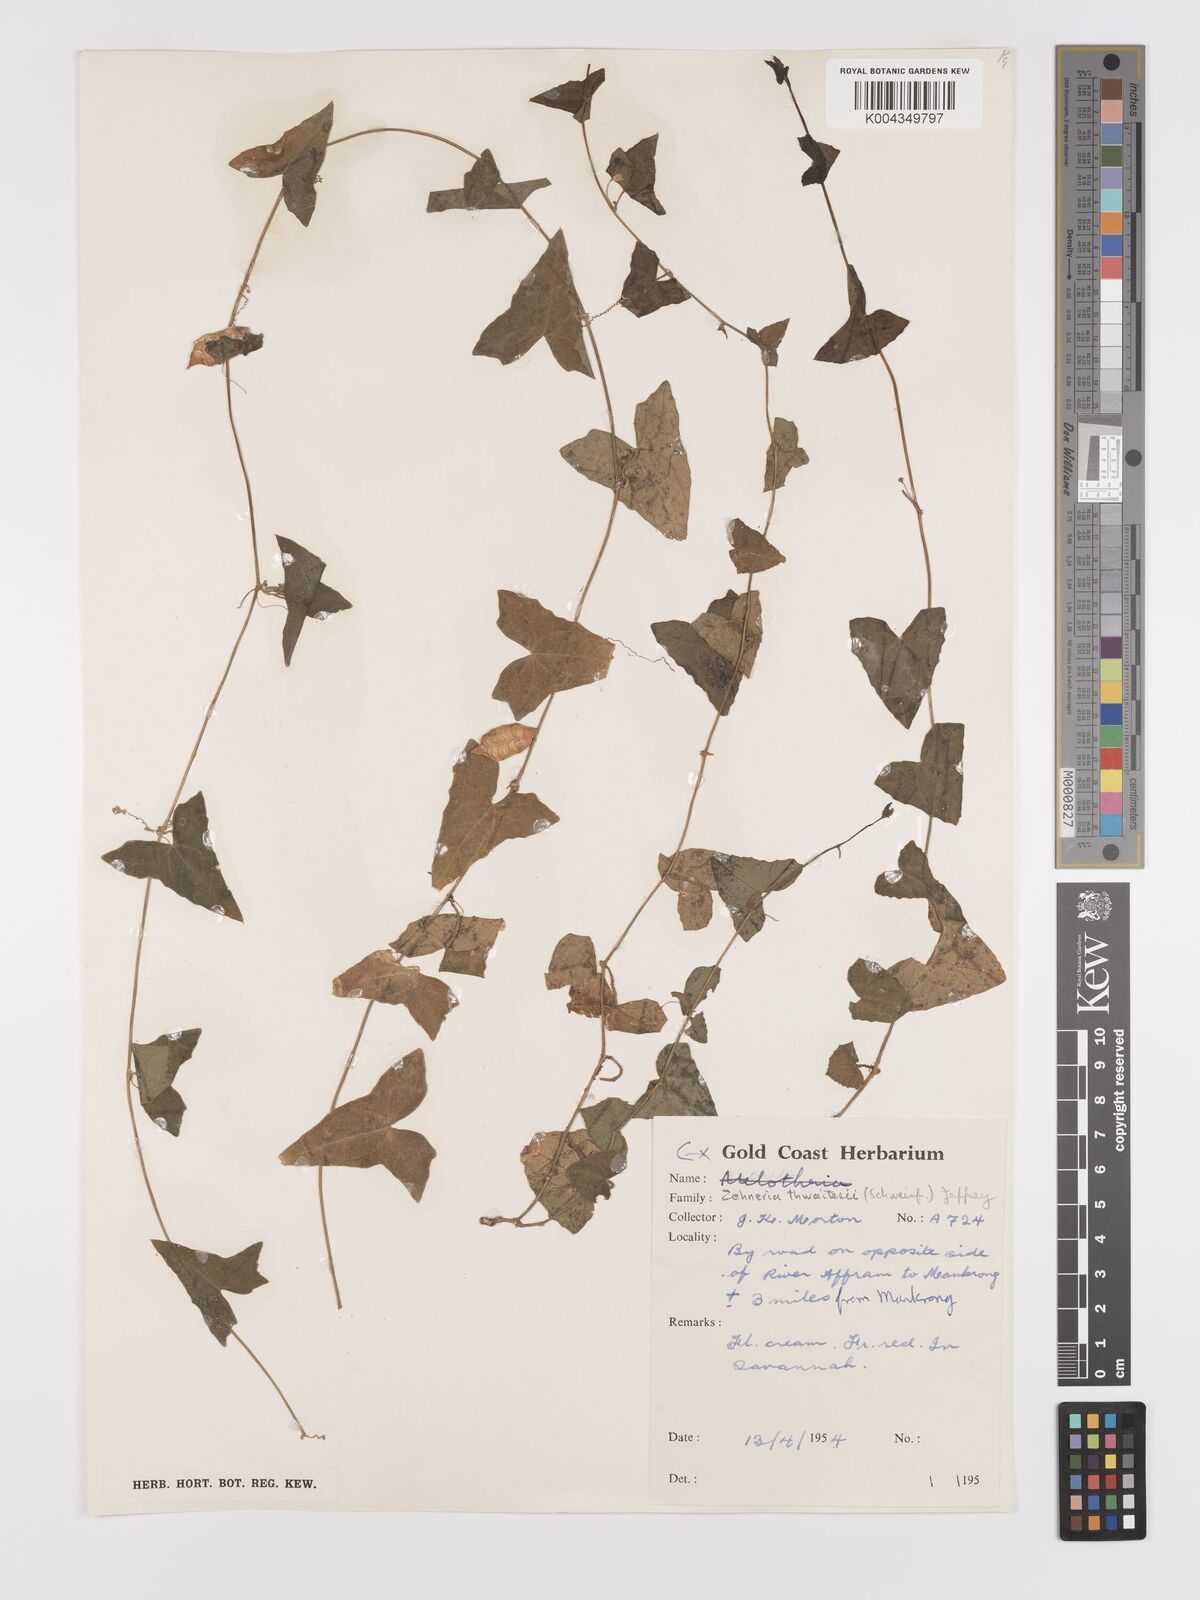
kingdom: Plantae
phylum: Tracheophyta
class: Magnoliopsida
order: Cucurbitales
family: Cucurbitaceae
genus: Zehneria
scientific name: Zehneria hallii
